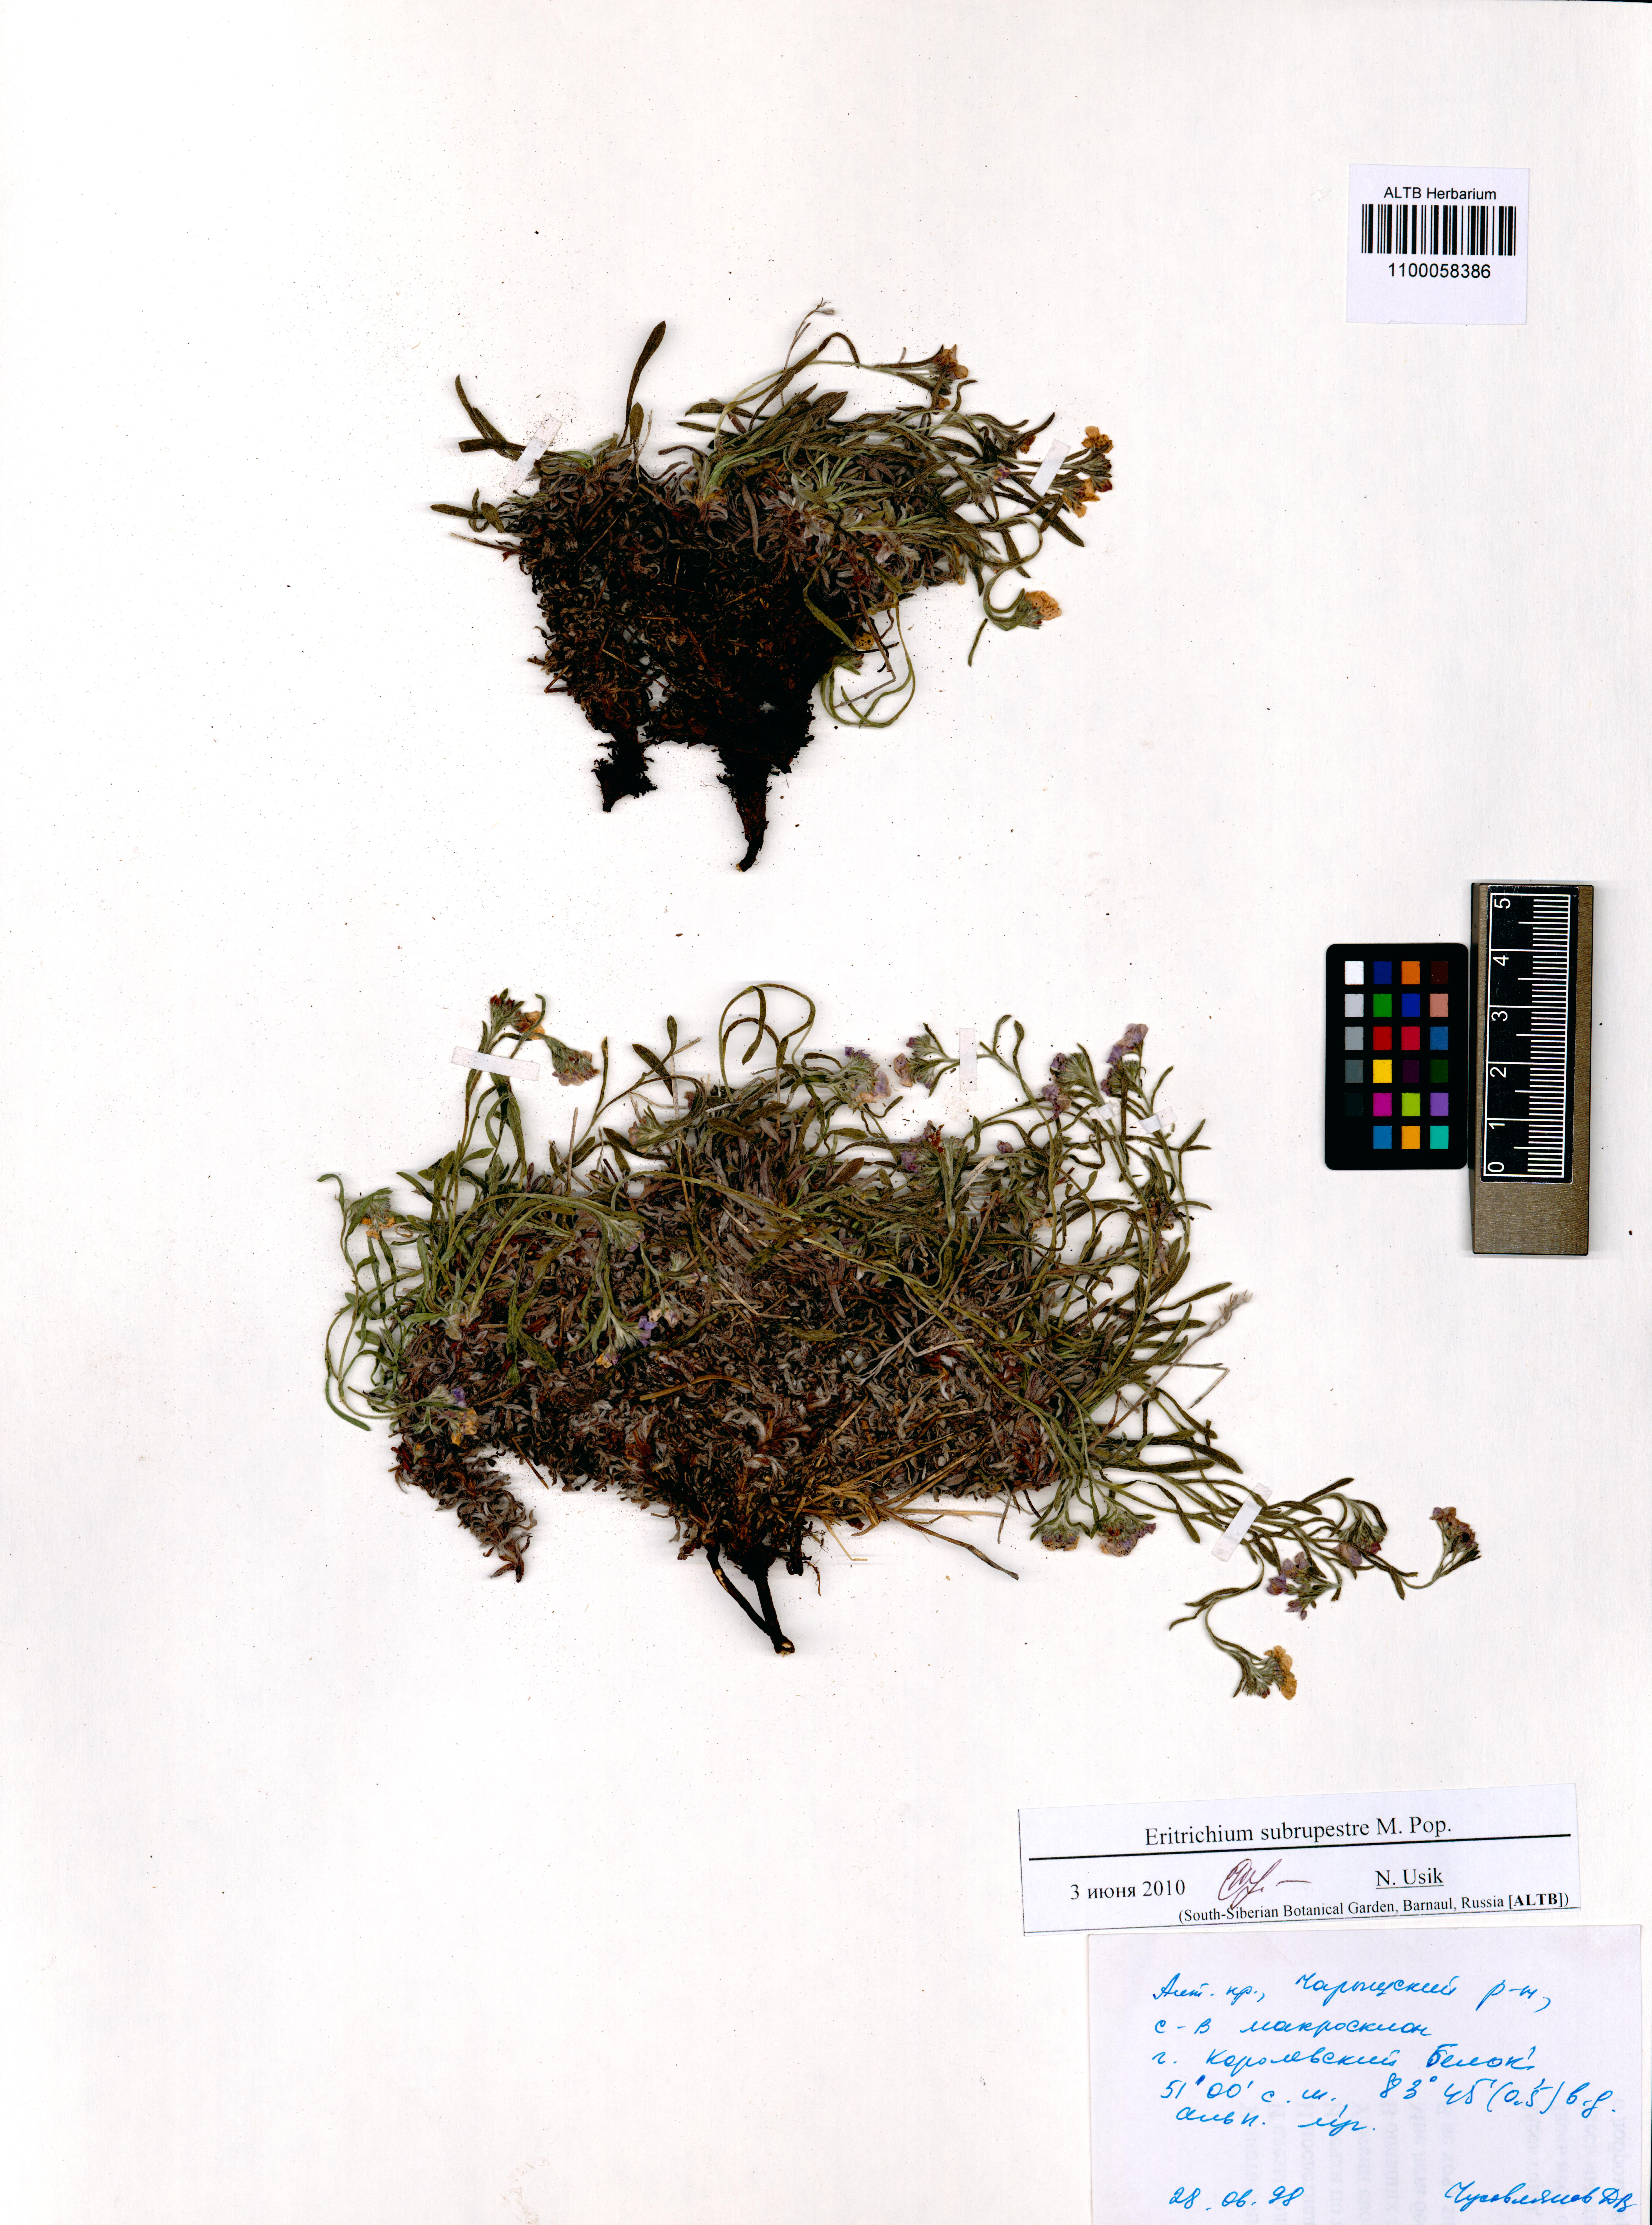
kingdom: Plantae
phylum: Tracheophyta
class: Magnoliopsida
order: Boraginales
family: Boraginaceae
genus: Eritrichium
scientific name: Eritrichium pauciflorum
